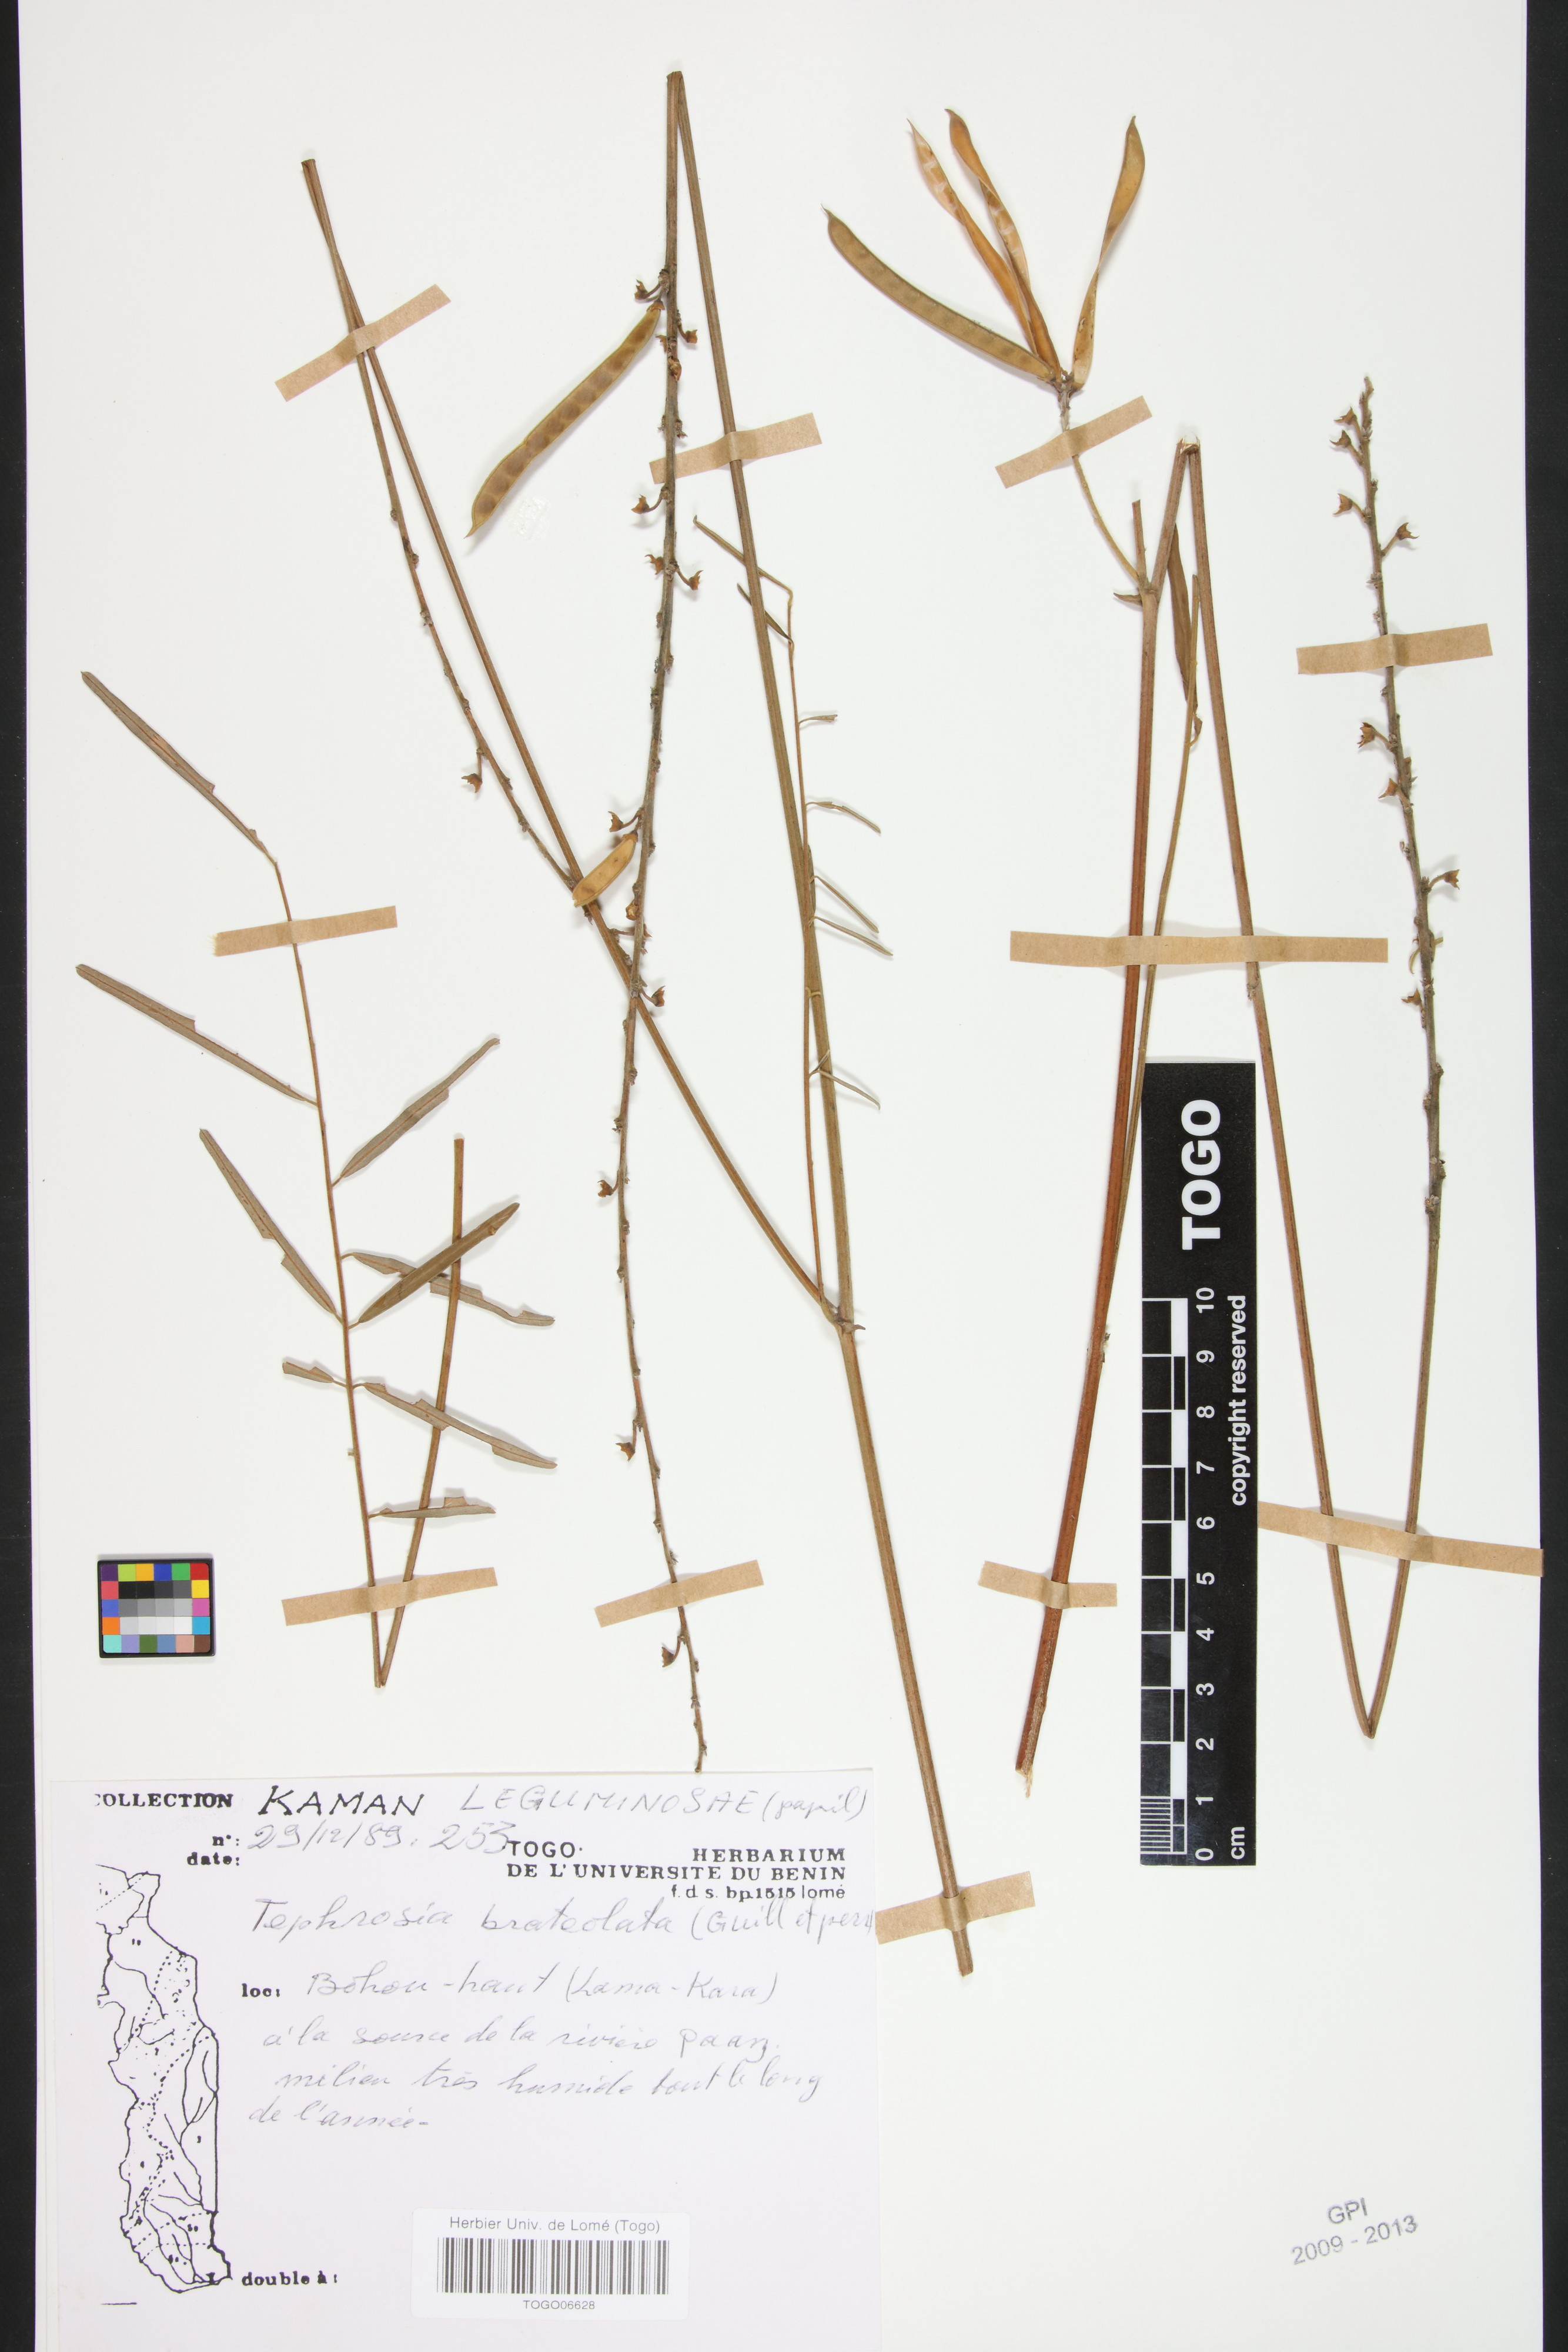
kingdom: Plantae
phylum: Tracheophyta
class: Magnoliopsida
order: Fabales
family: Fabaceae
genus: Tephrosia
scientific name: Tephrosia bracteolata
